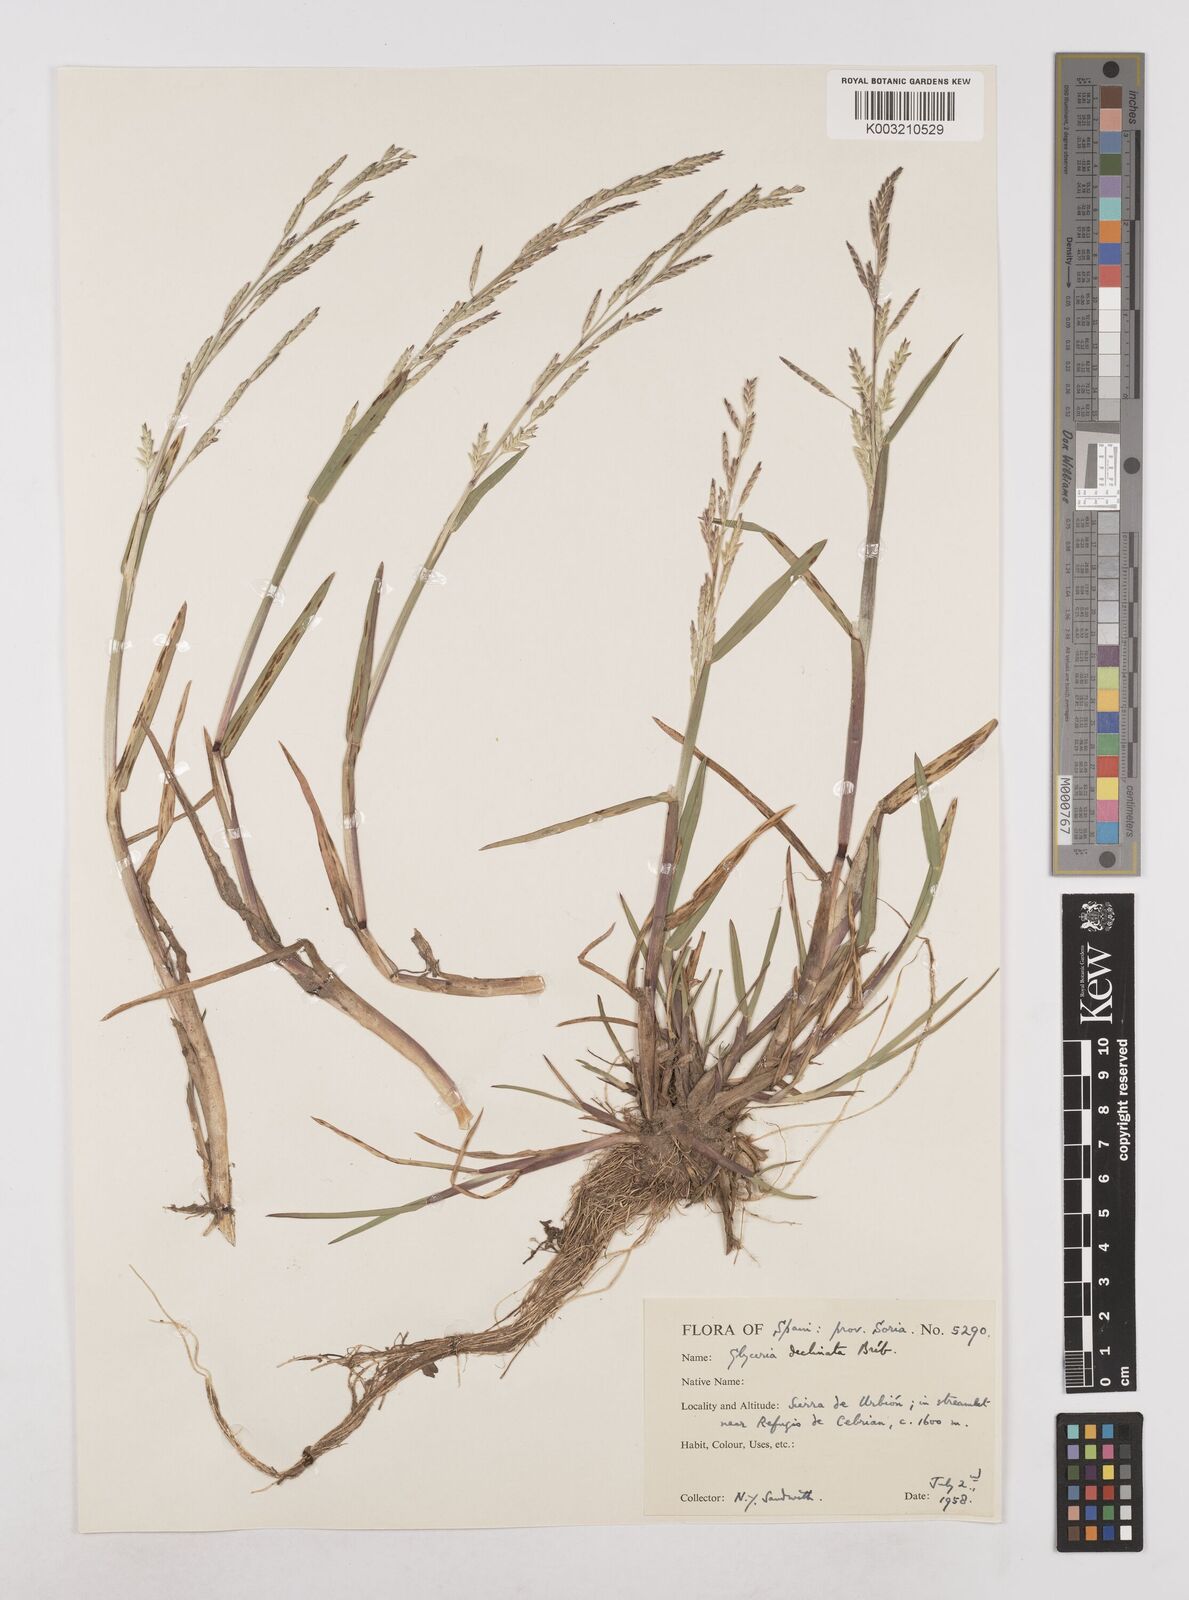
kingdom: Plantae
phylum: Tracheophyta
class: Liliopsida
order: Poales
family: Poaceae
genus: Glyceria
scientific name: Glyceria declinata
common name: Small sweet-grass
